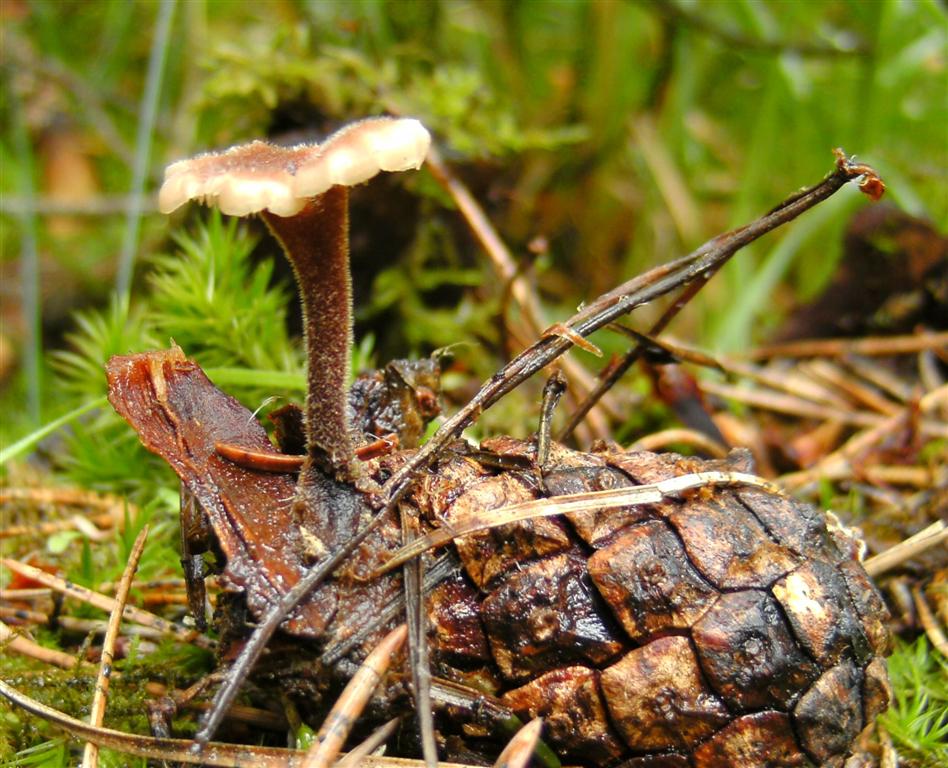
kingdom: Fungi
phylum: Basidiomycota
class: Agaricomycetes
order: Russulales
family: Auriscalpiaceae
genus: Auriscalpium
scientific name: Auriscalpium vulgare
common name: koglepigsvamp
